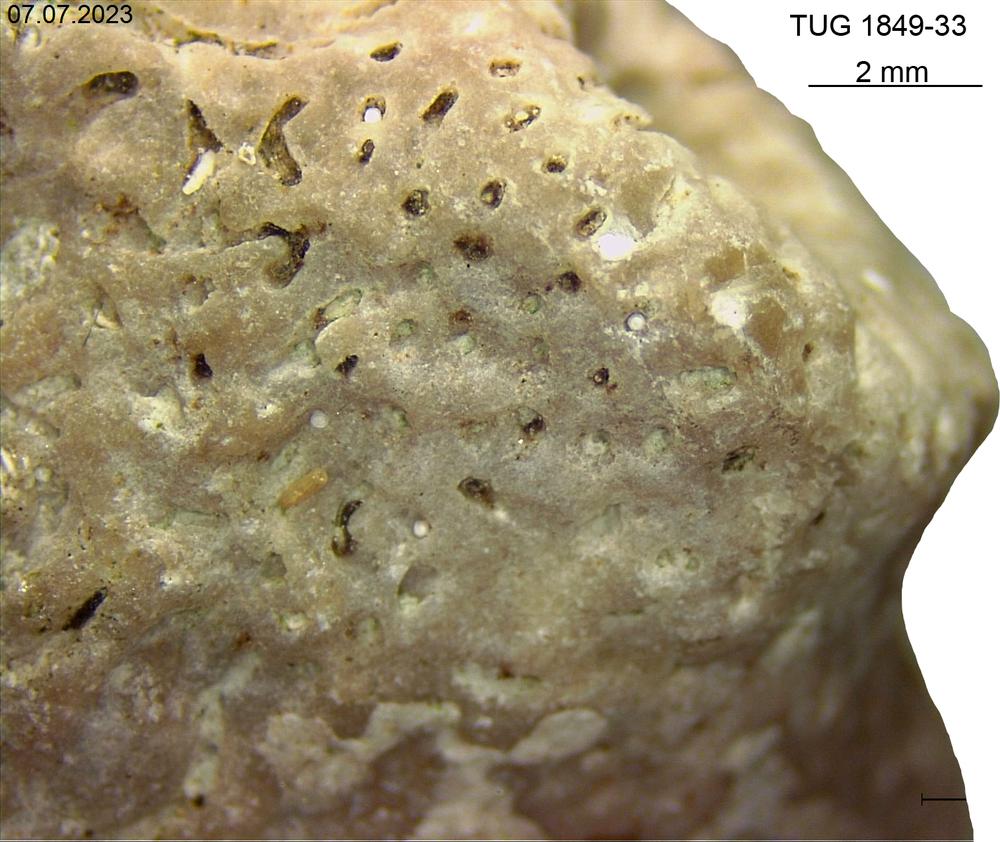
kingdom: Animalia
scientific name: Animalia
